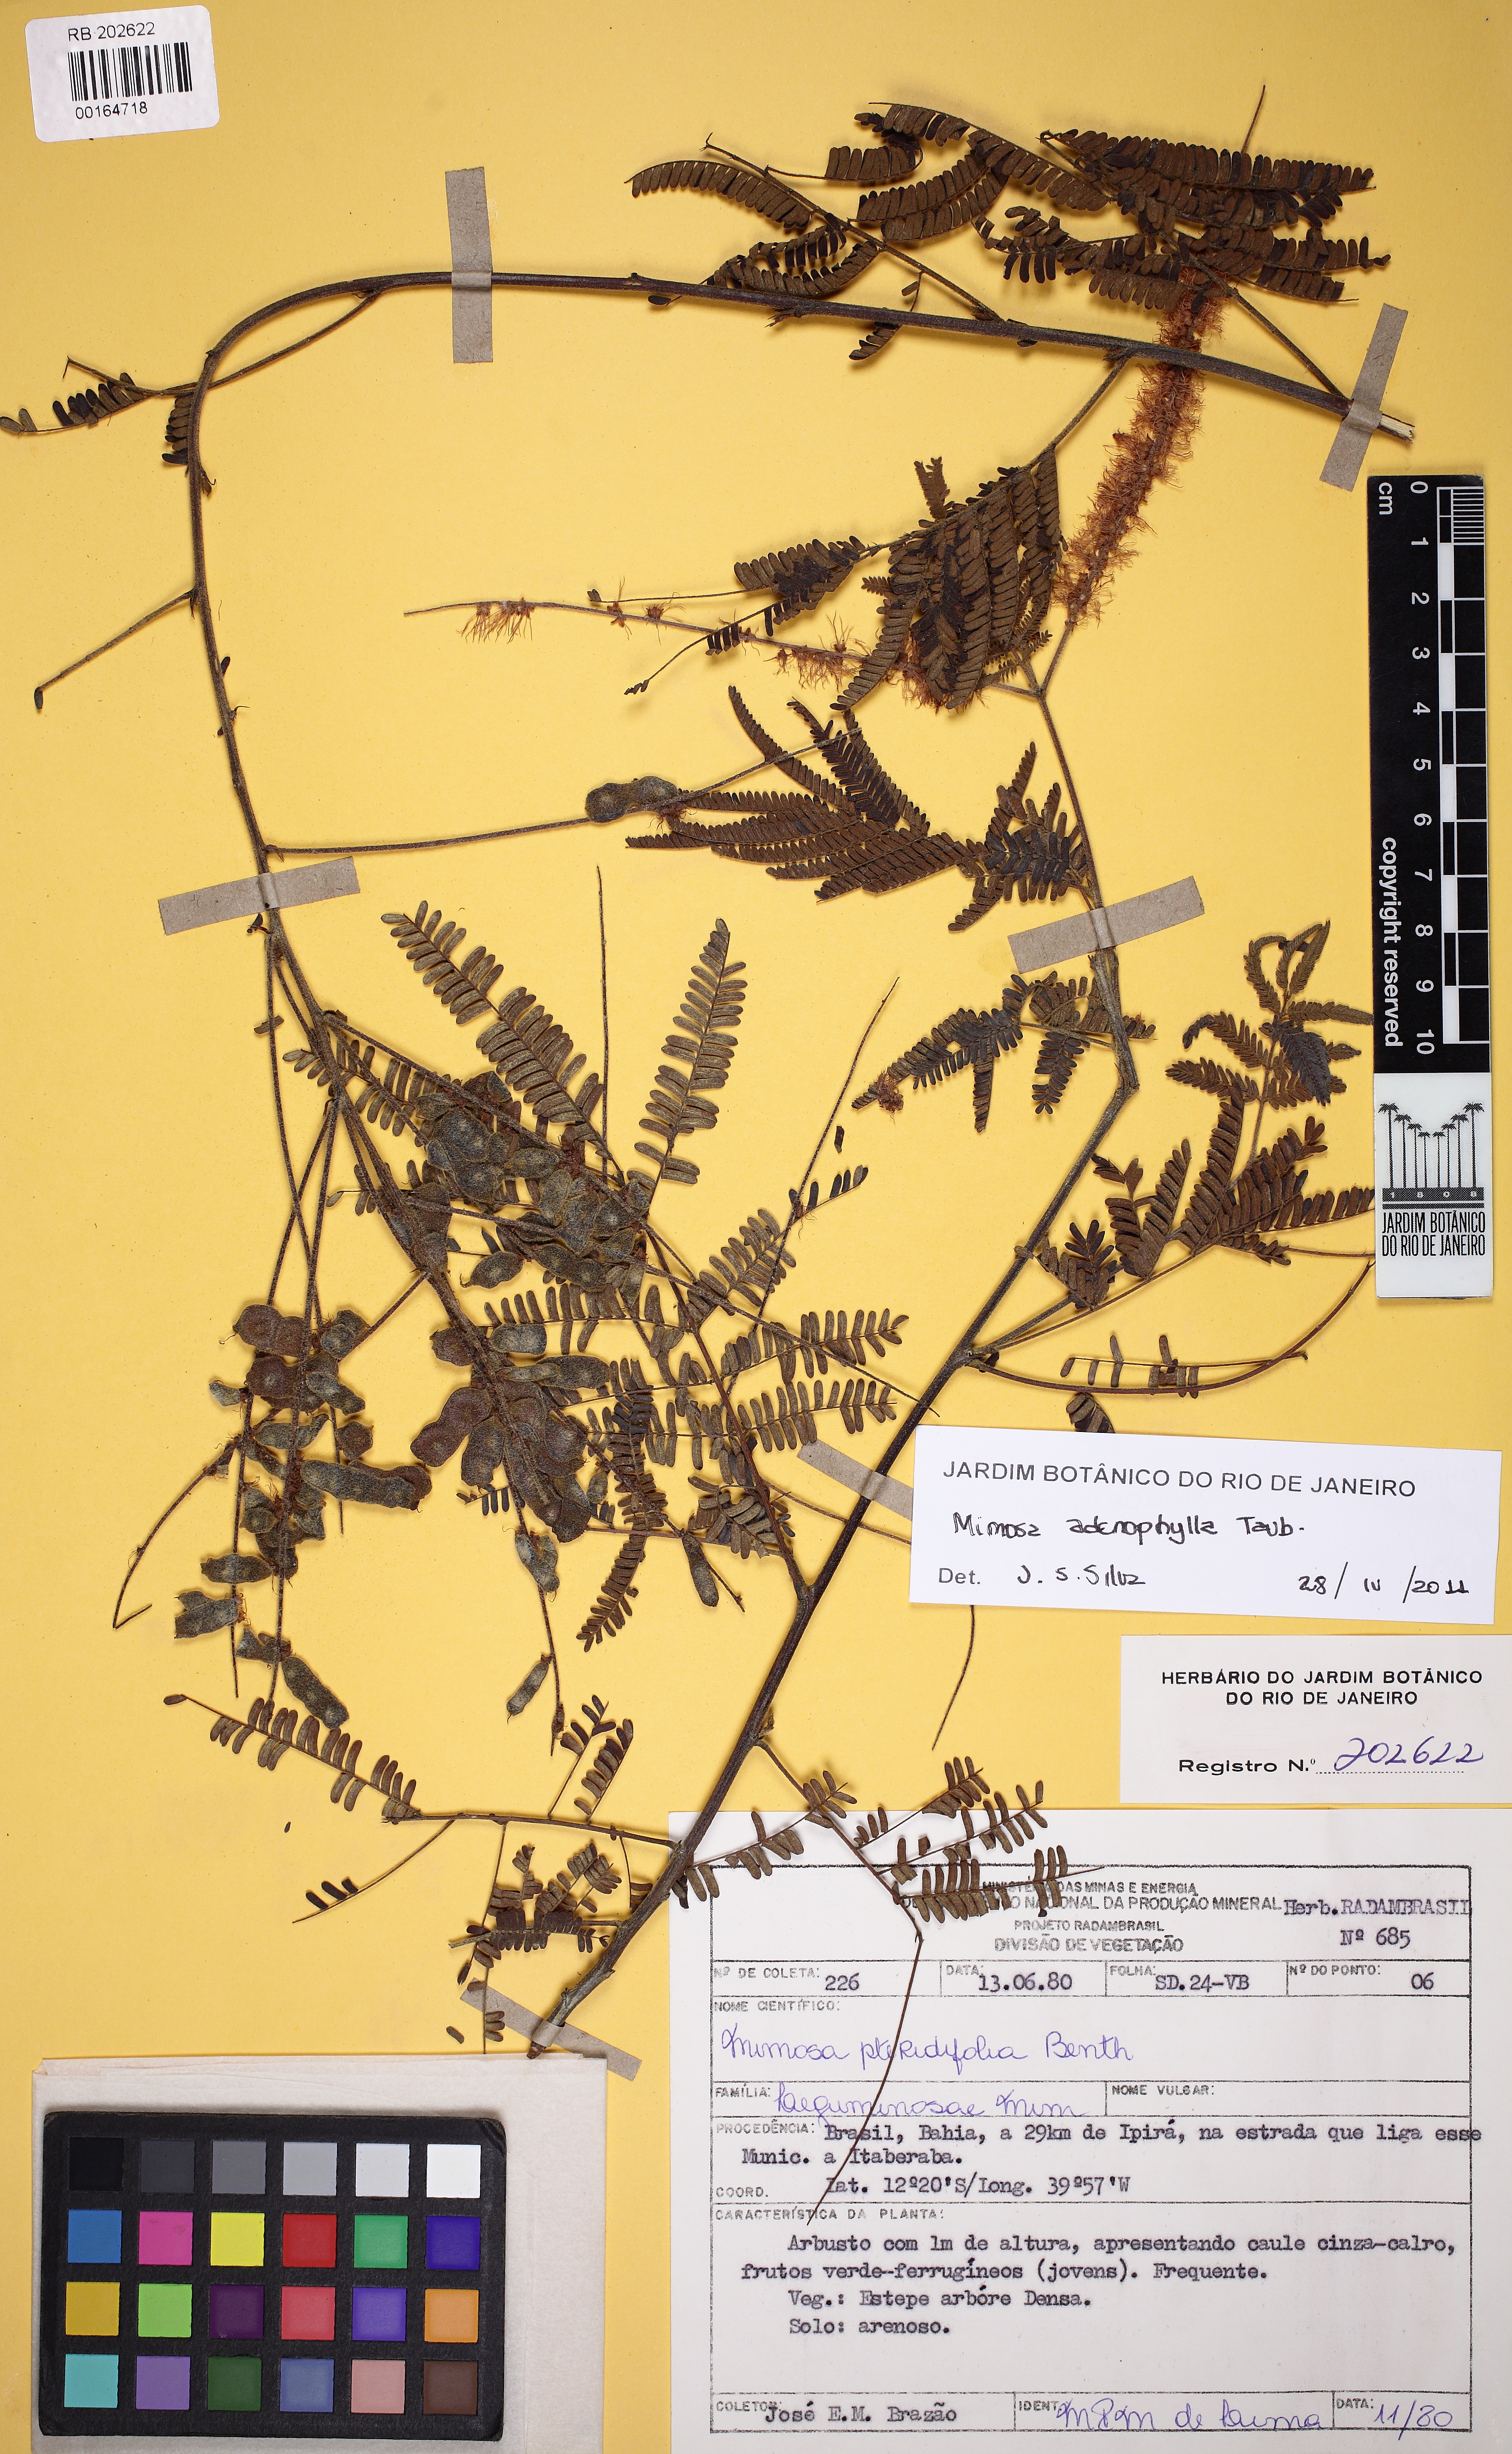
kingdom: Plantae
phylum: Tracheophyta
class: Magnoliopsida
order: Fabales
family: Fabaceae
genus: Mimosa
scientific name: Mimosa pteridifolia
